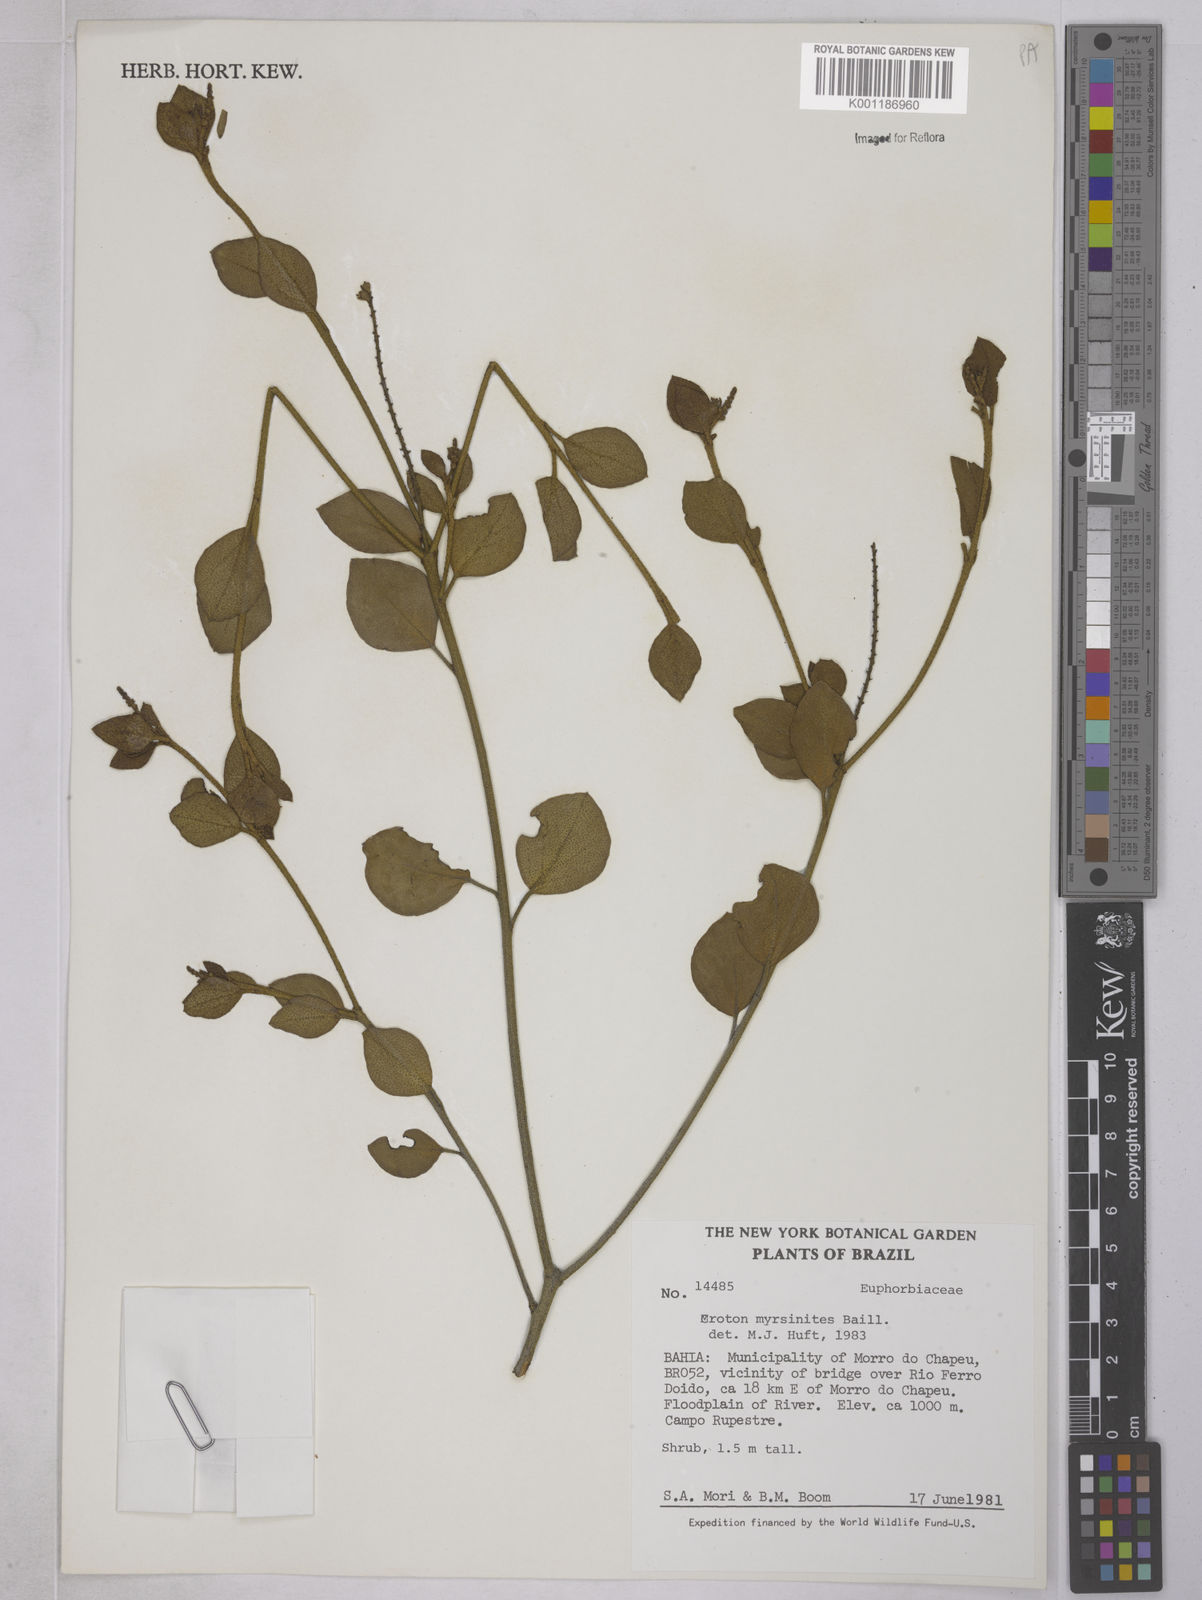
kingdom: Plantae
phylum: Tracheophyta
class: Magnoliopsida
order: Malpighiales
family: Euphorbiaceae
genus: Croton
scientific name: Croton myrsinites
